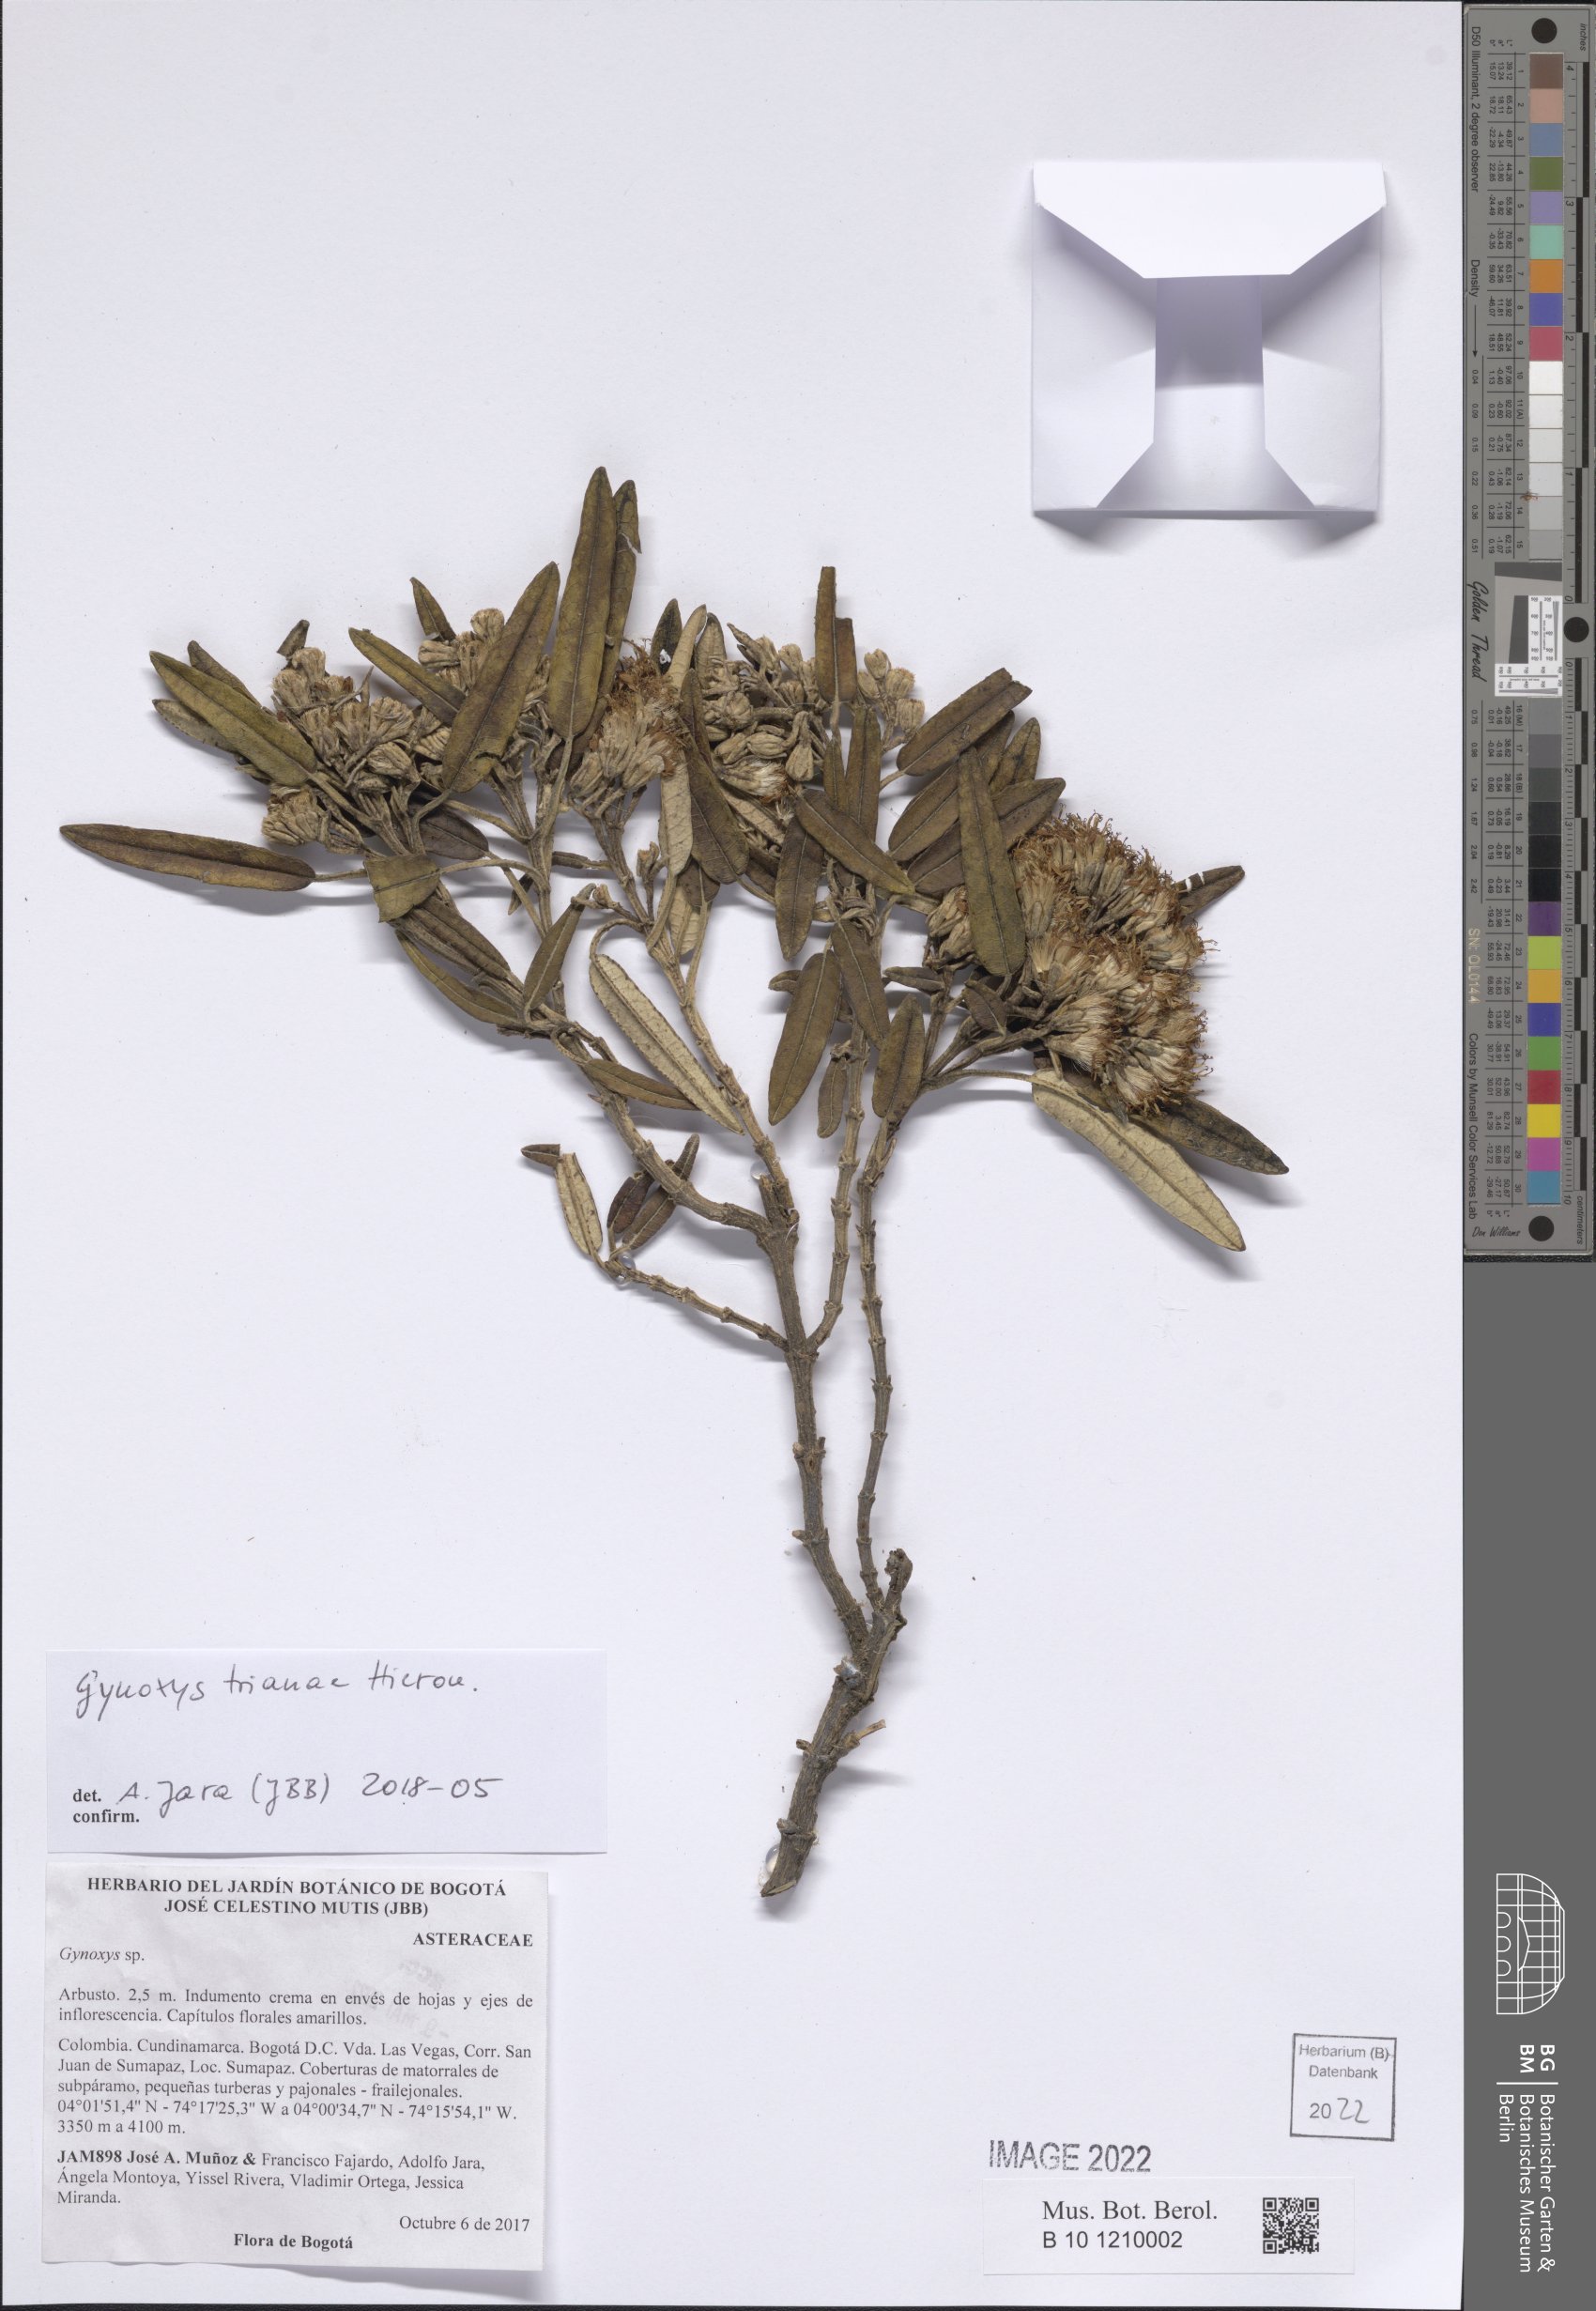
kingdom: Plantae
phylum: Tracheophyta
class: Magnoliopsida
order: Asterales
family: Asteraceae
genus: Gynoxys
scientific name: Gynoxys trianae
